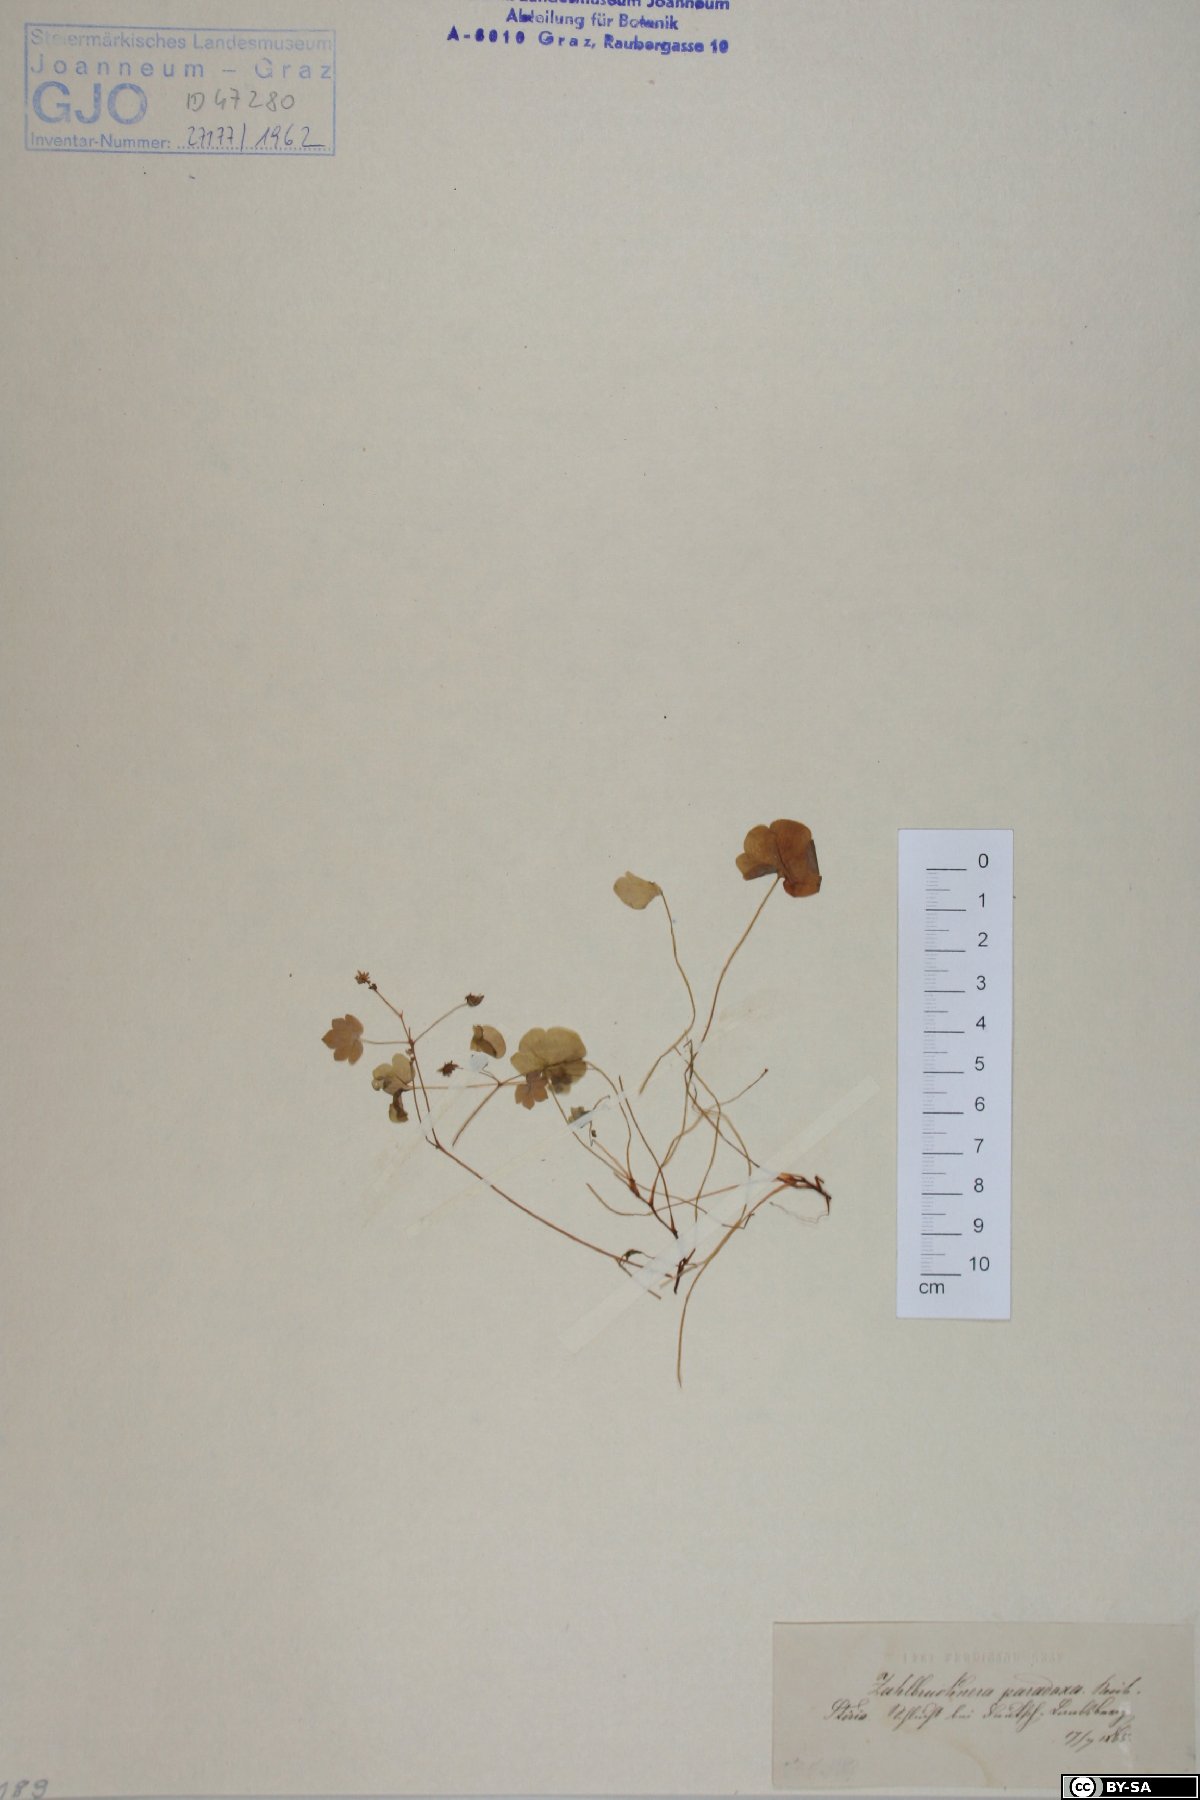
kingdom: Plantae
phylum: Tracheophyta
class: Magnoliopsida
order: Saxifragales
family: Saxifragaceae
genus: Saxifraga
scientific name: Saxifraga paradoxa
